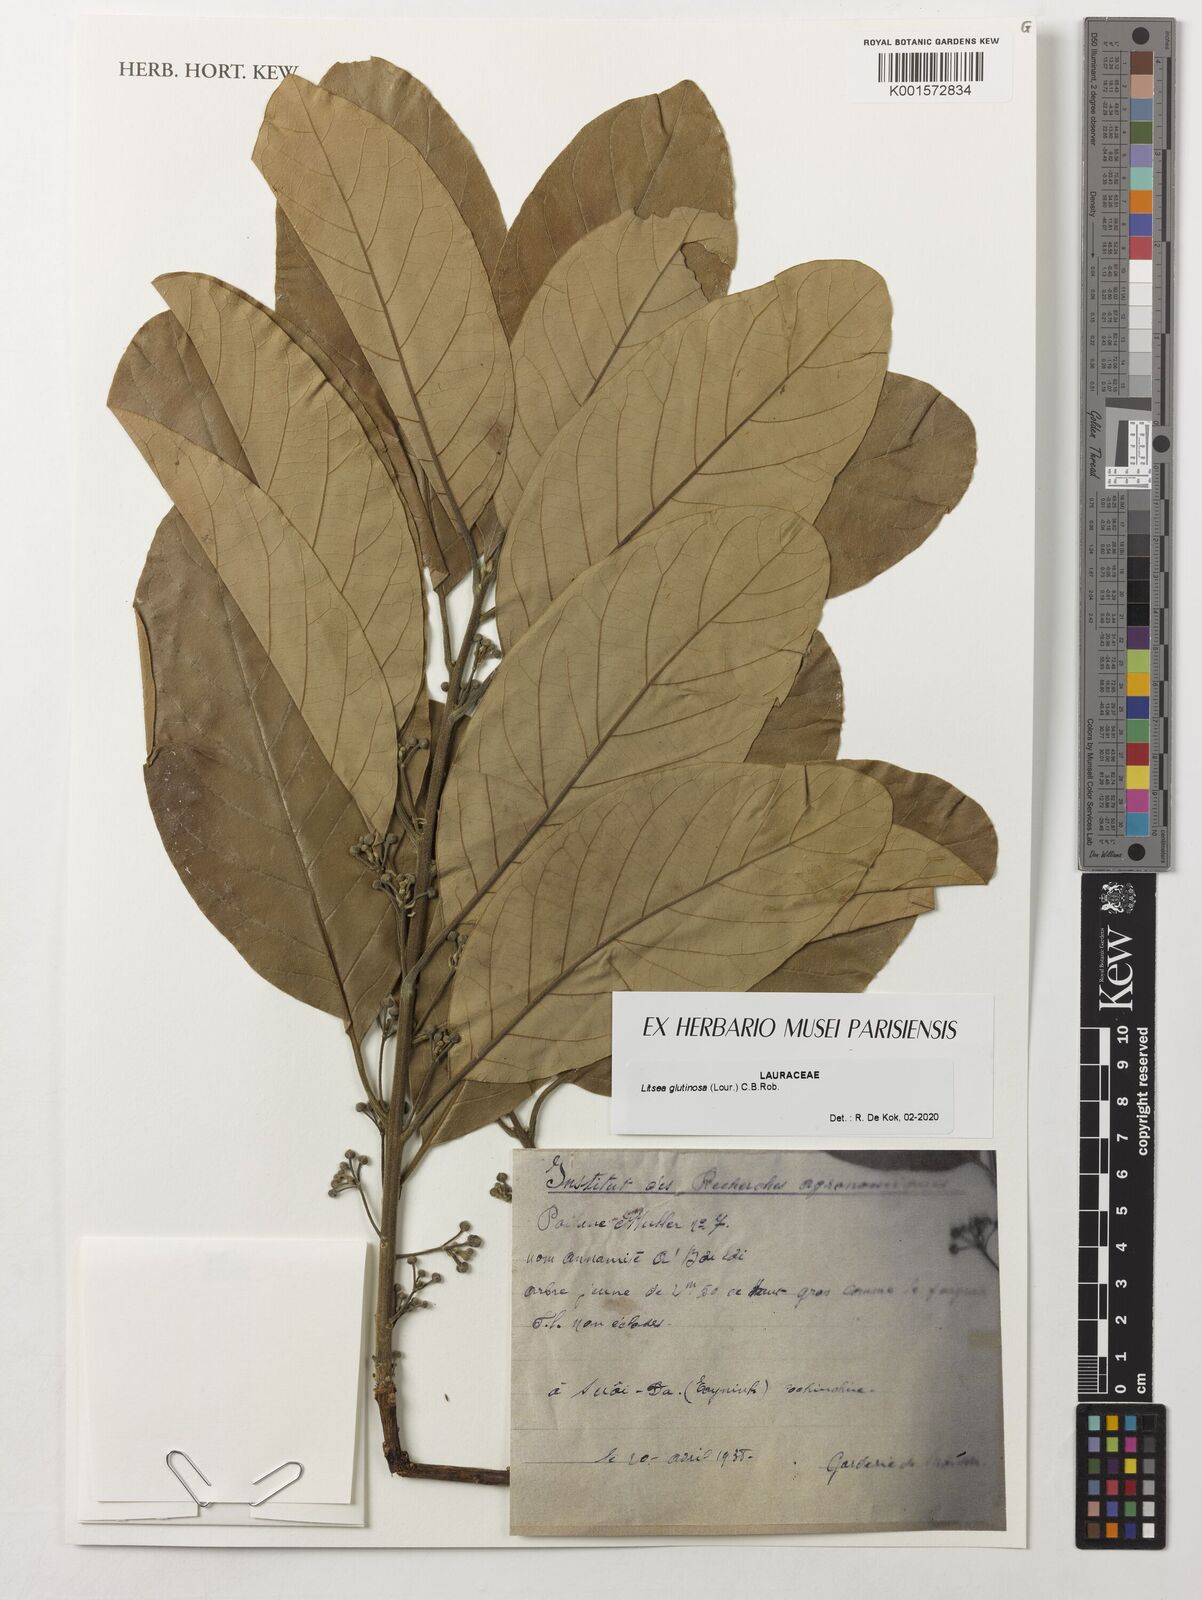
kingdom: Plantae
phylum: Tracheophyta
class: Magnoliopsida
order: Laurales
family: Lauraceae
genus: Litsea
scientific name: Litsea glutinosa
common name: Indian-laurel
